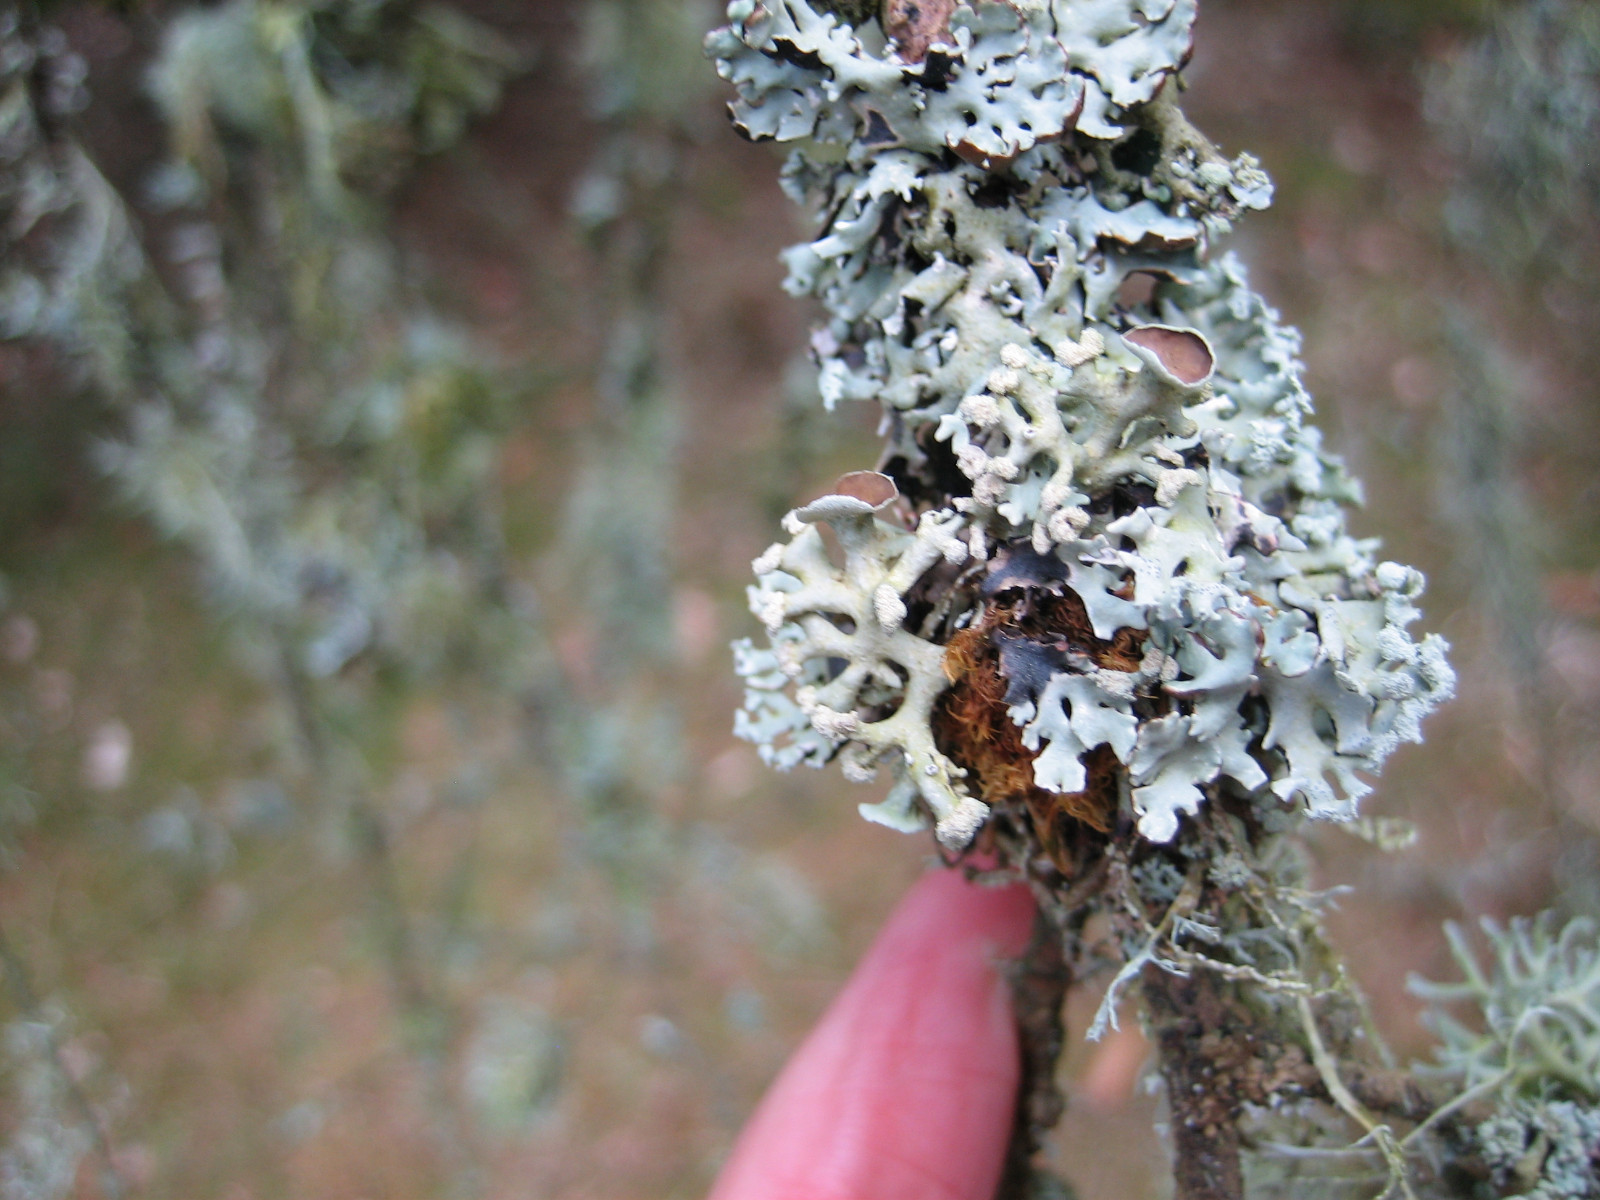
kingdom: Fungi
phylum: Ascomycota
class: Lecanoromycetes
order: Lecanorales
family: Parmeliaceae
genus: Hypogymnia
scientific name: Hypogymnia tubulosa
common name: finger-kvistlav
